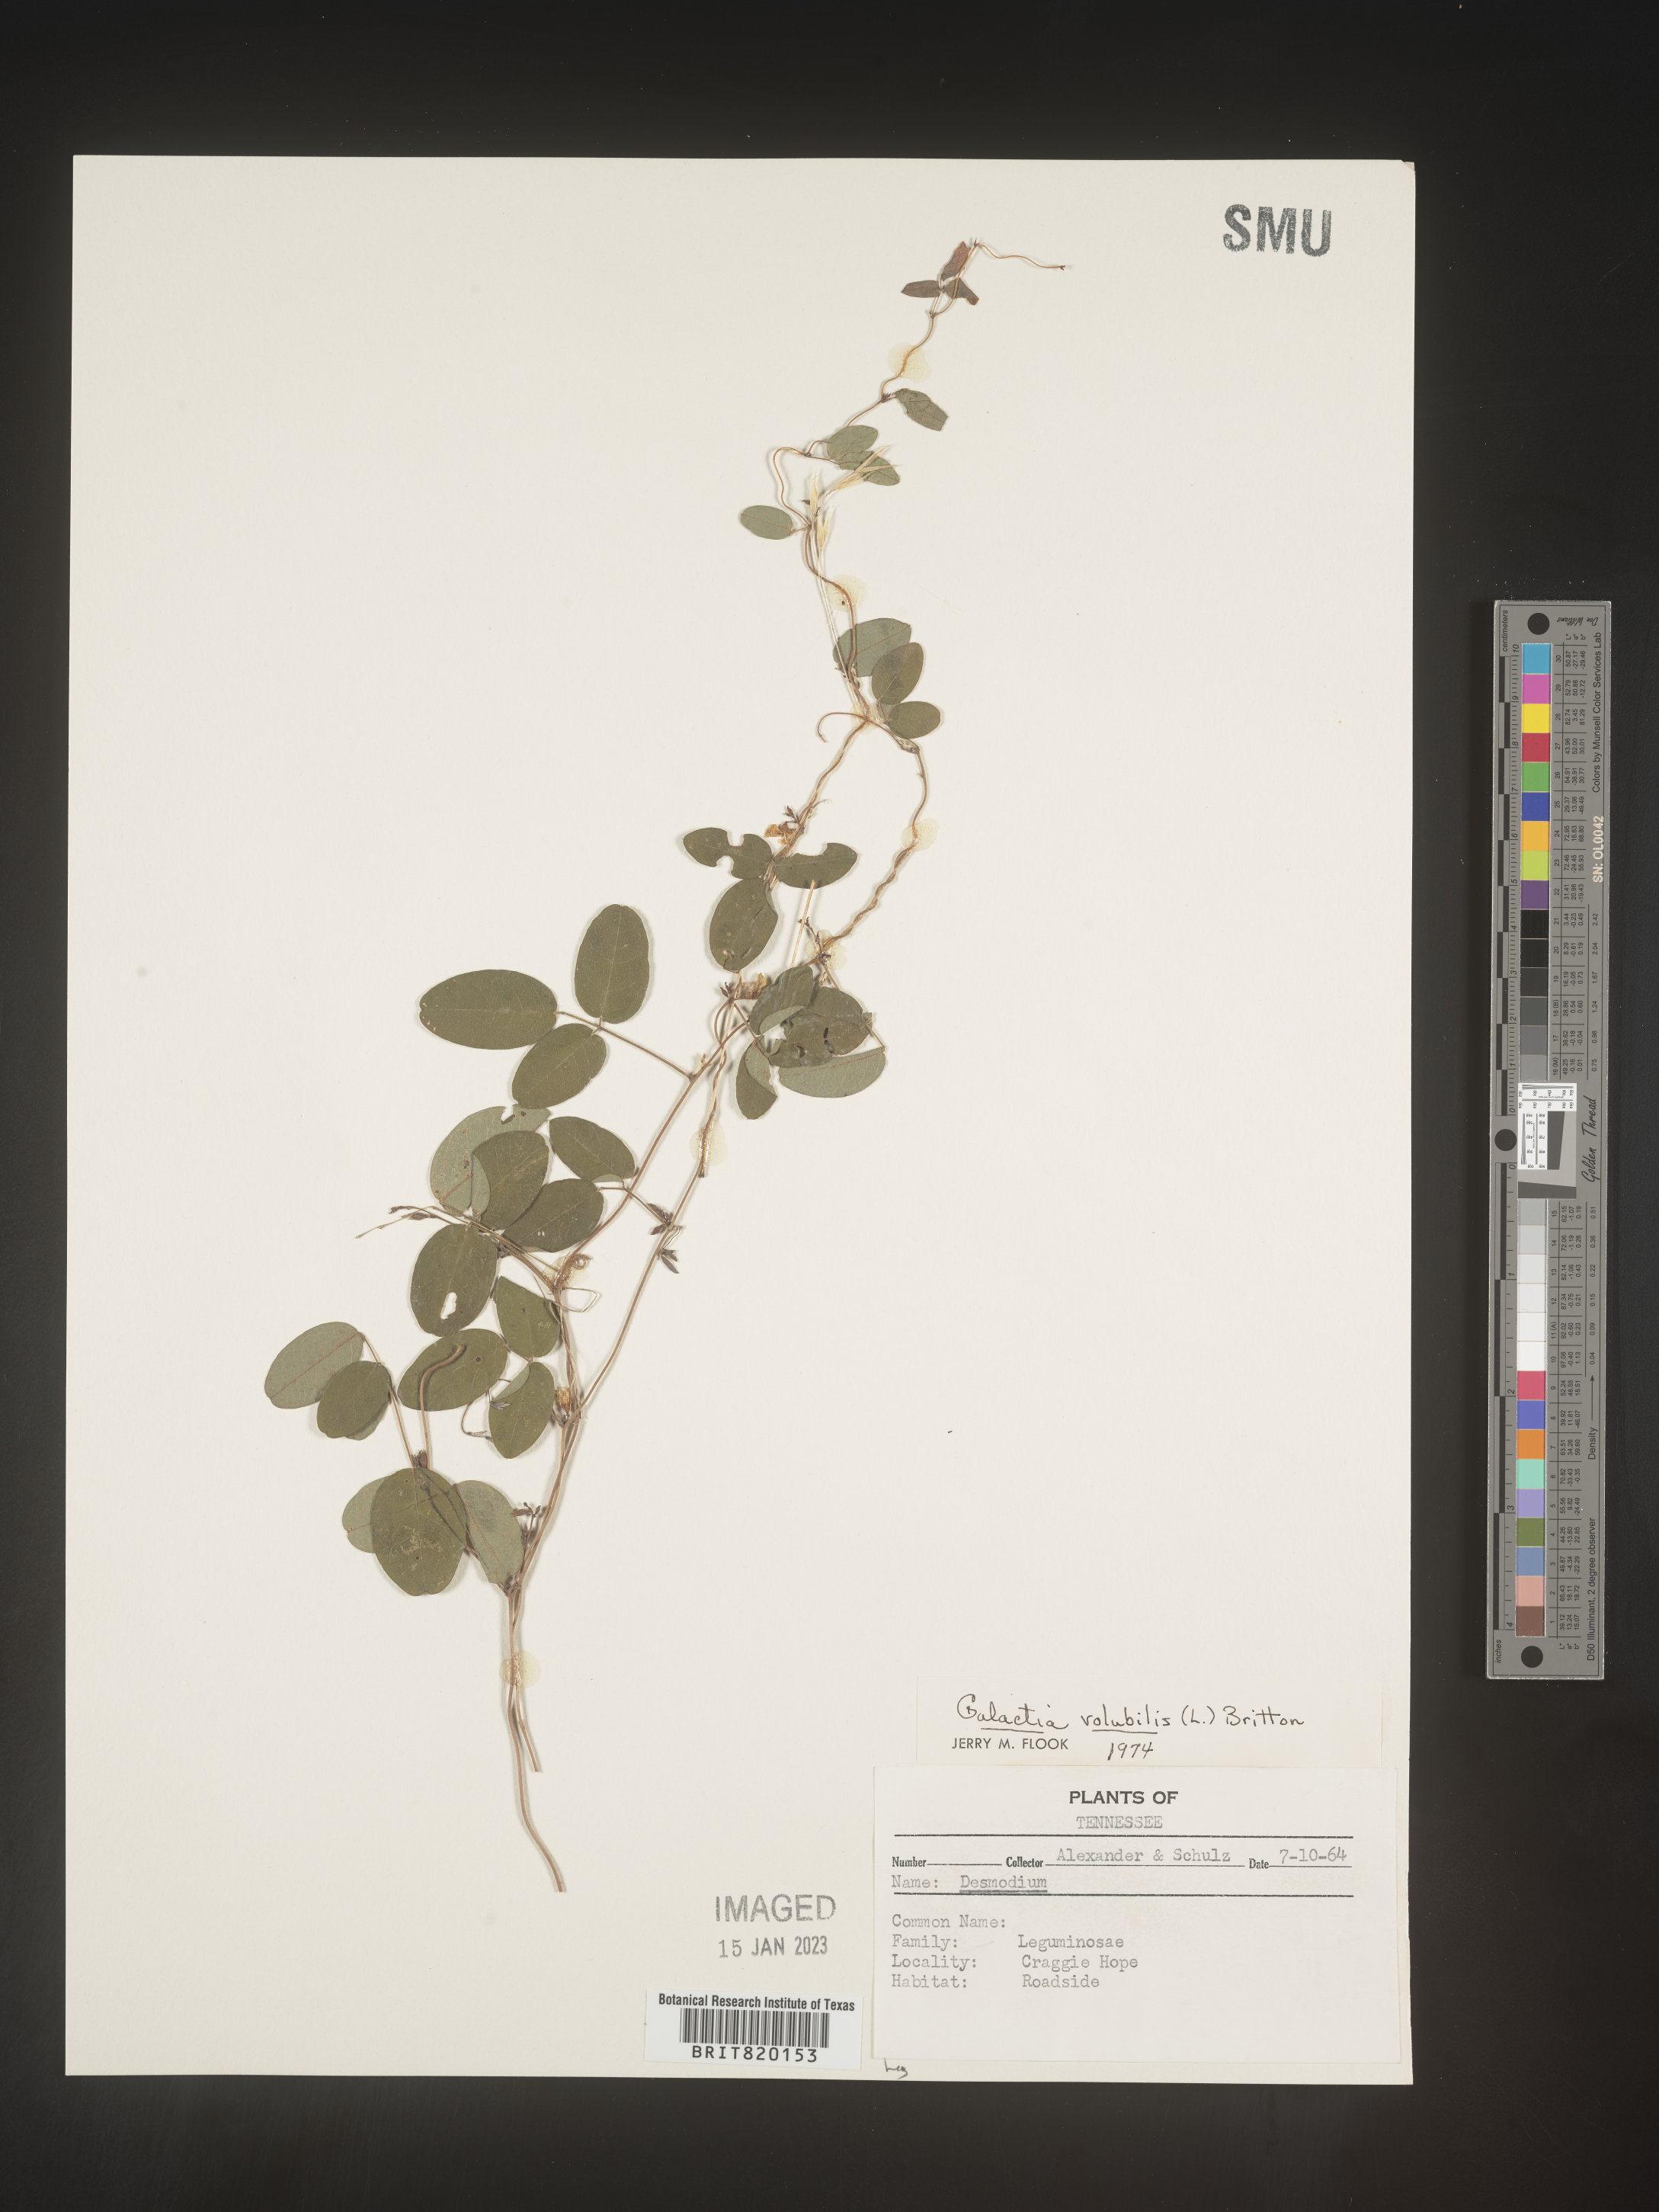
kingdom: Plantae
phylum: Tracheophyta
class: Magnoliopsida
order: Fabales
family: Fabaceae
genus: Galactia
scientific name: Galactia volubilis
